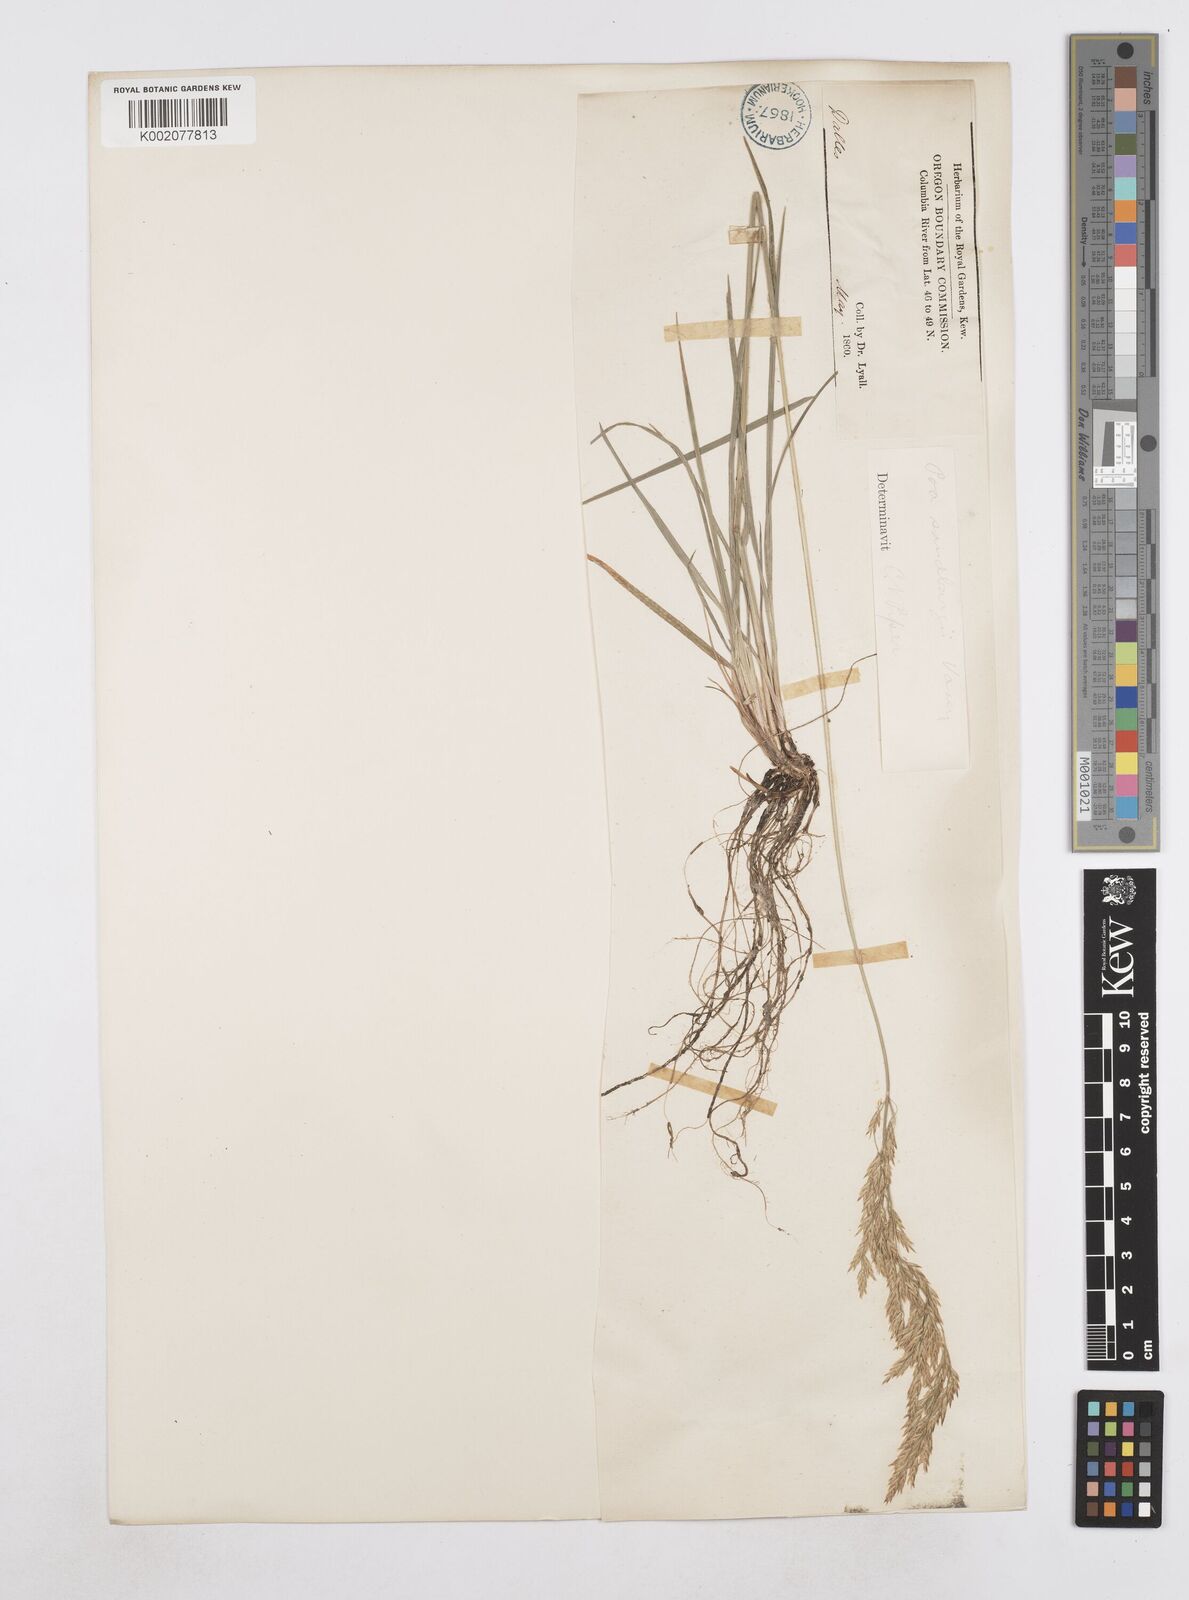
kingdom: Plantae
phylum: Tracheophyta
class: Liliopsida
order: Poales
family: Poaceae
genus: Poa
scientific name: Poa secunda
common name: Sandberg bluegrass
